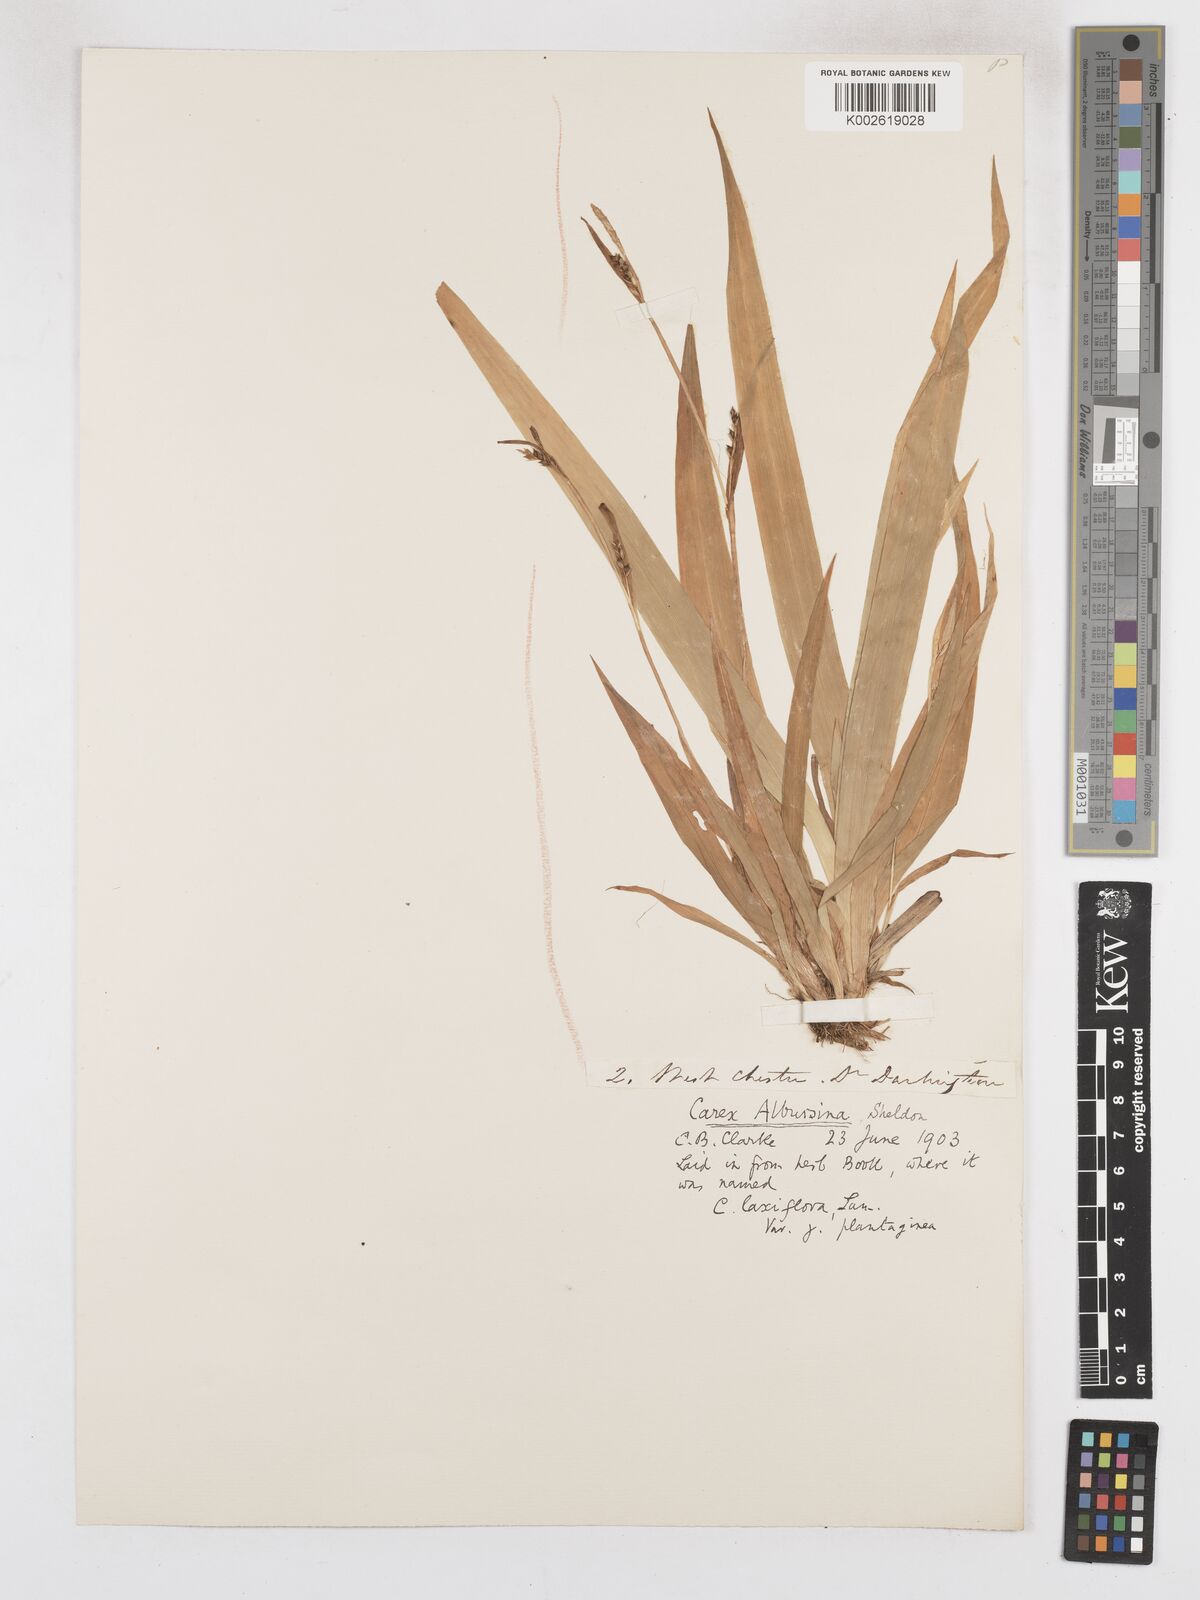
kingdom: Plantae
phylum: Tracheophyta
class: Liliopsida
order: Poales
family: Cyperaceae
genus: Carex
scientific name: Carex albursina
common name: Blunt-scale wood sedge
